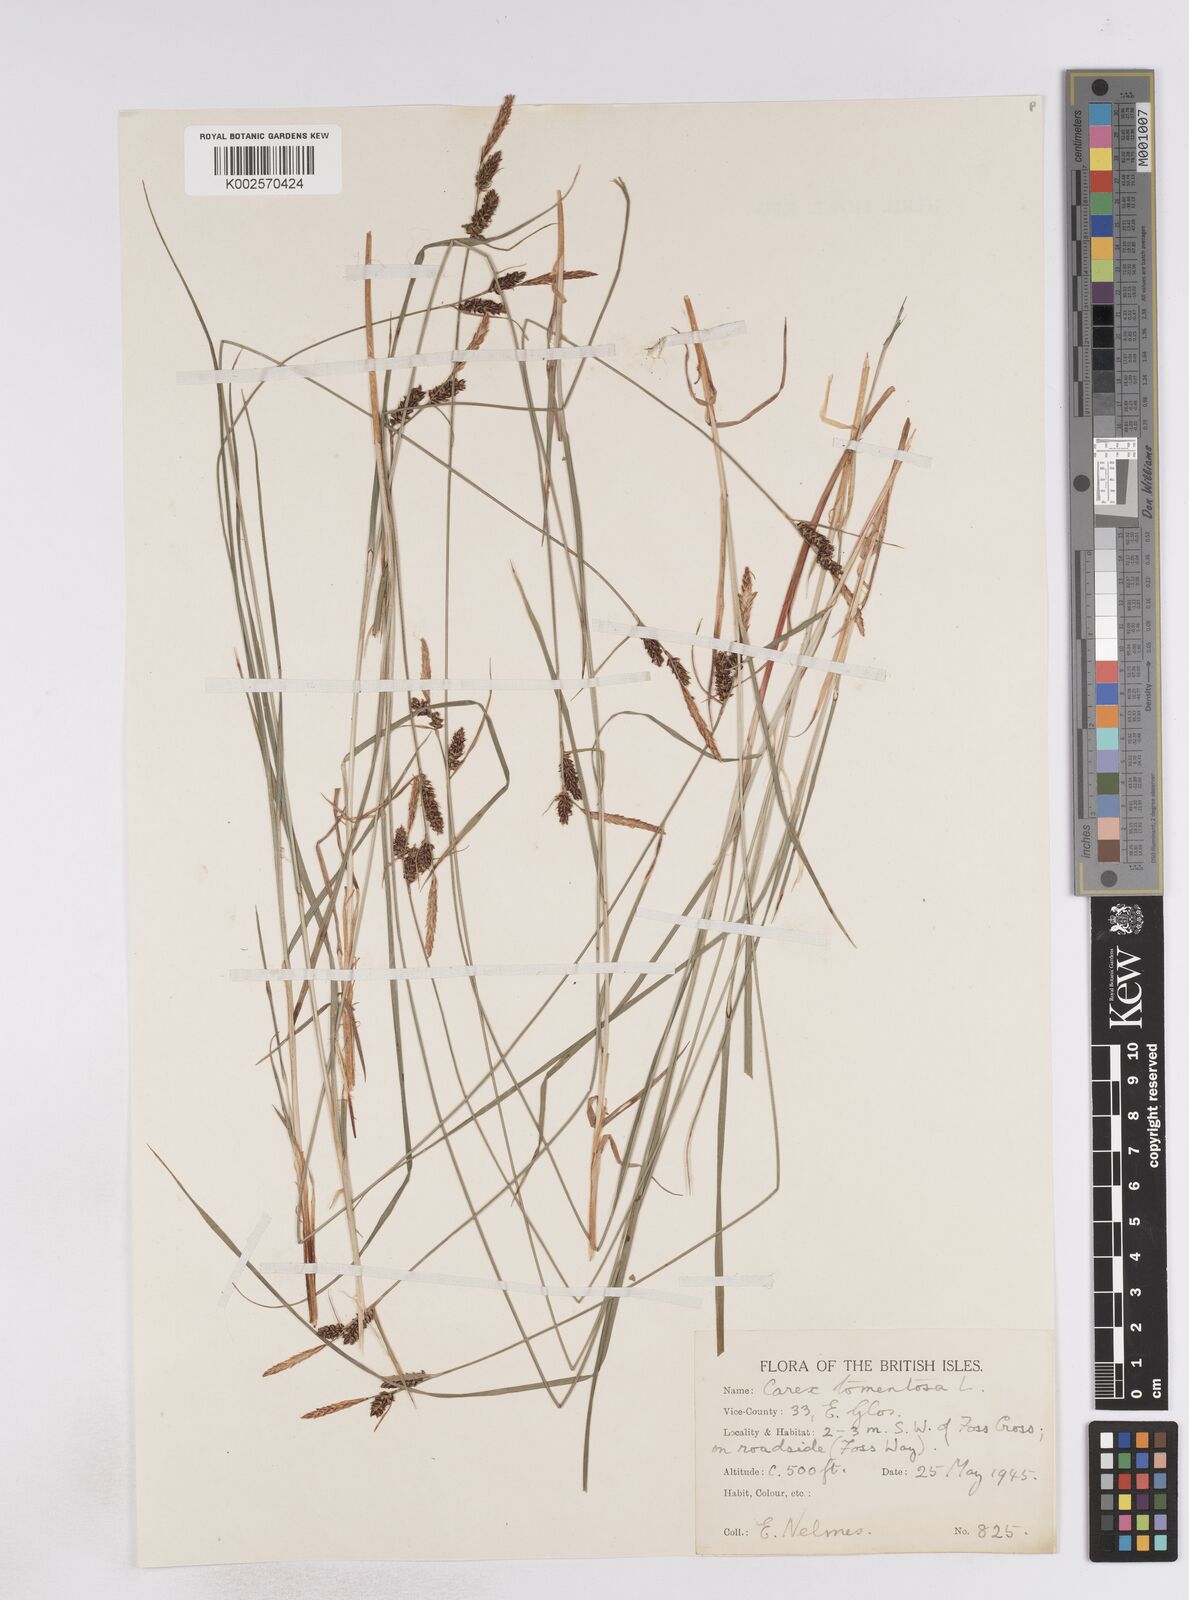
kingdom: Plantae
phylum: Tracheophyta
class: Liliopsida
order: Poales
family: Cyperaceae
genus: Carex
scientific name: Carex montana
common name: Soft-leaved sedge
